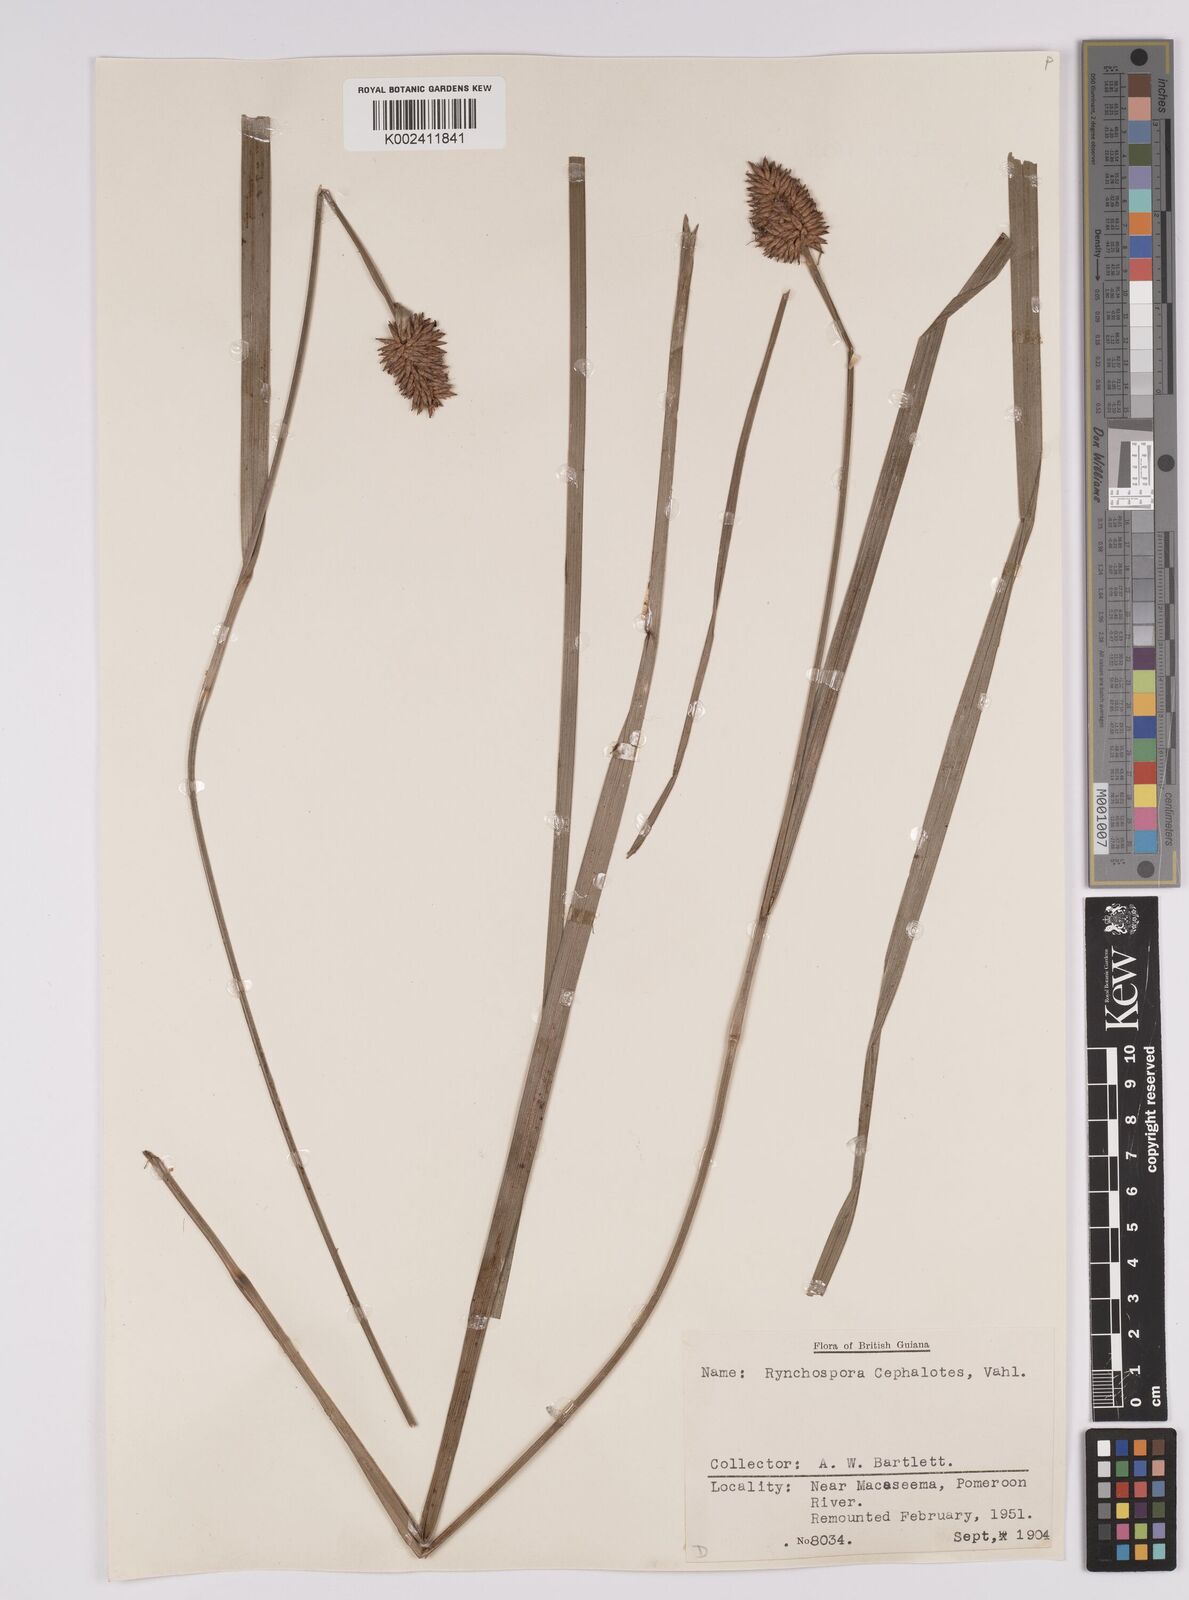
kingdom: Plantae
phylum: Tracheophyta
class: Liliopsida
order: Poales
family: Cyperaceae
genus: Rhynchospora
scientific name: Rhynchospora cephalotes
